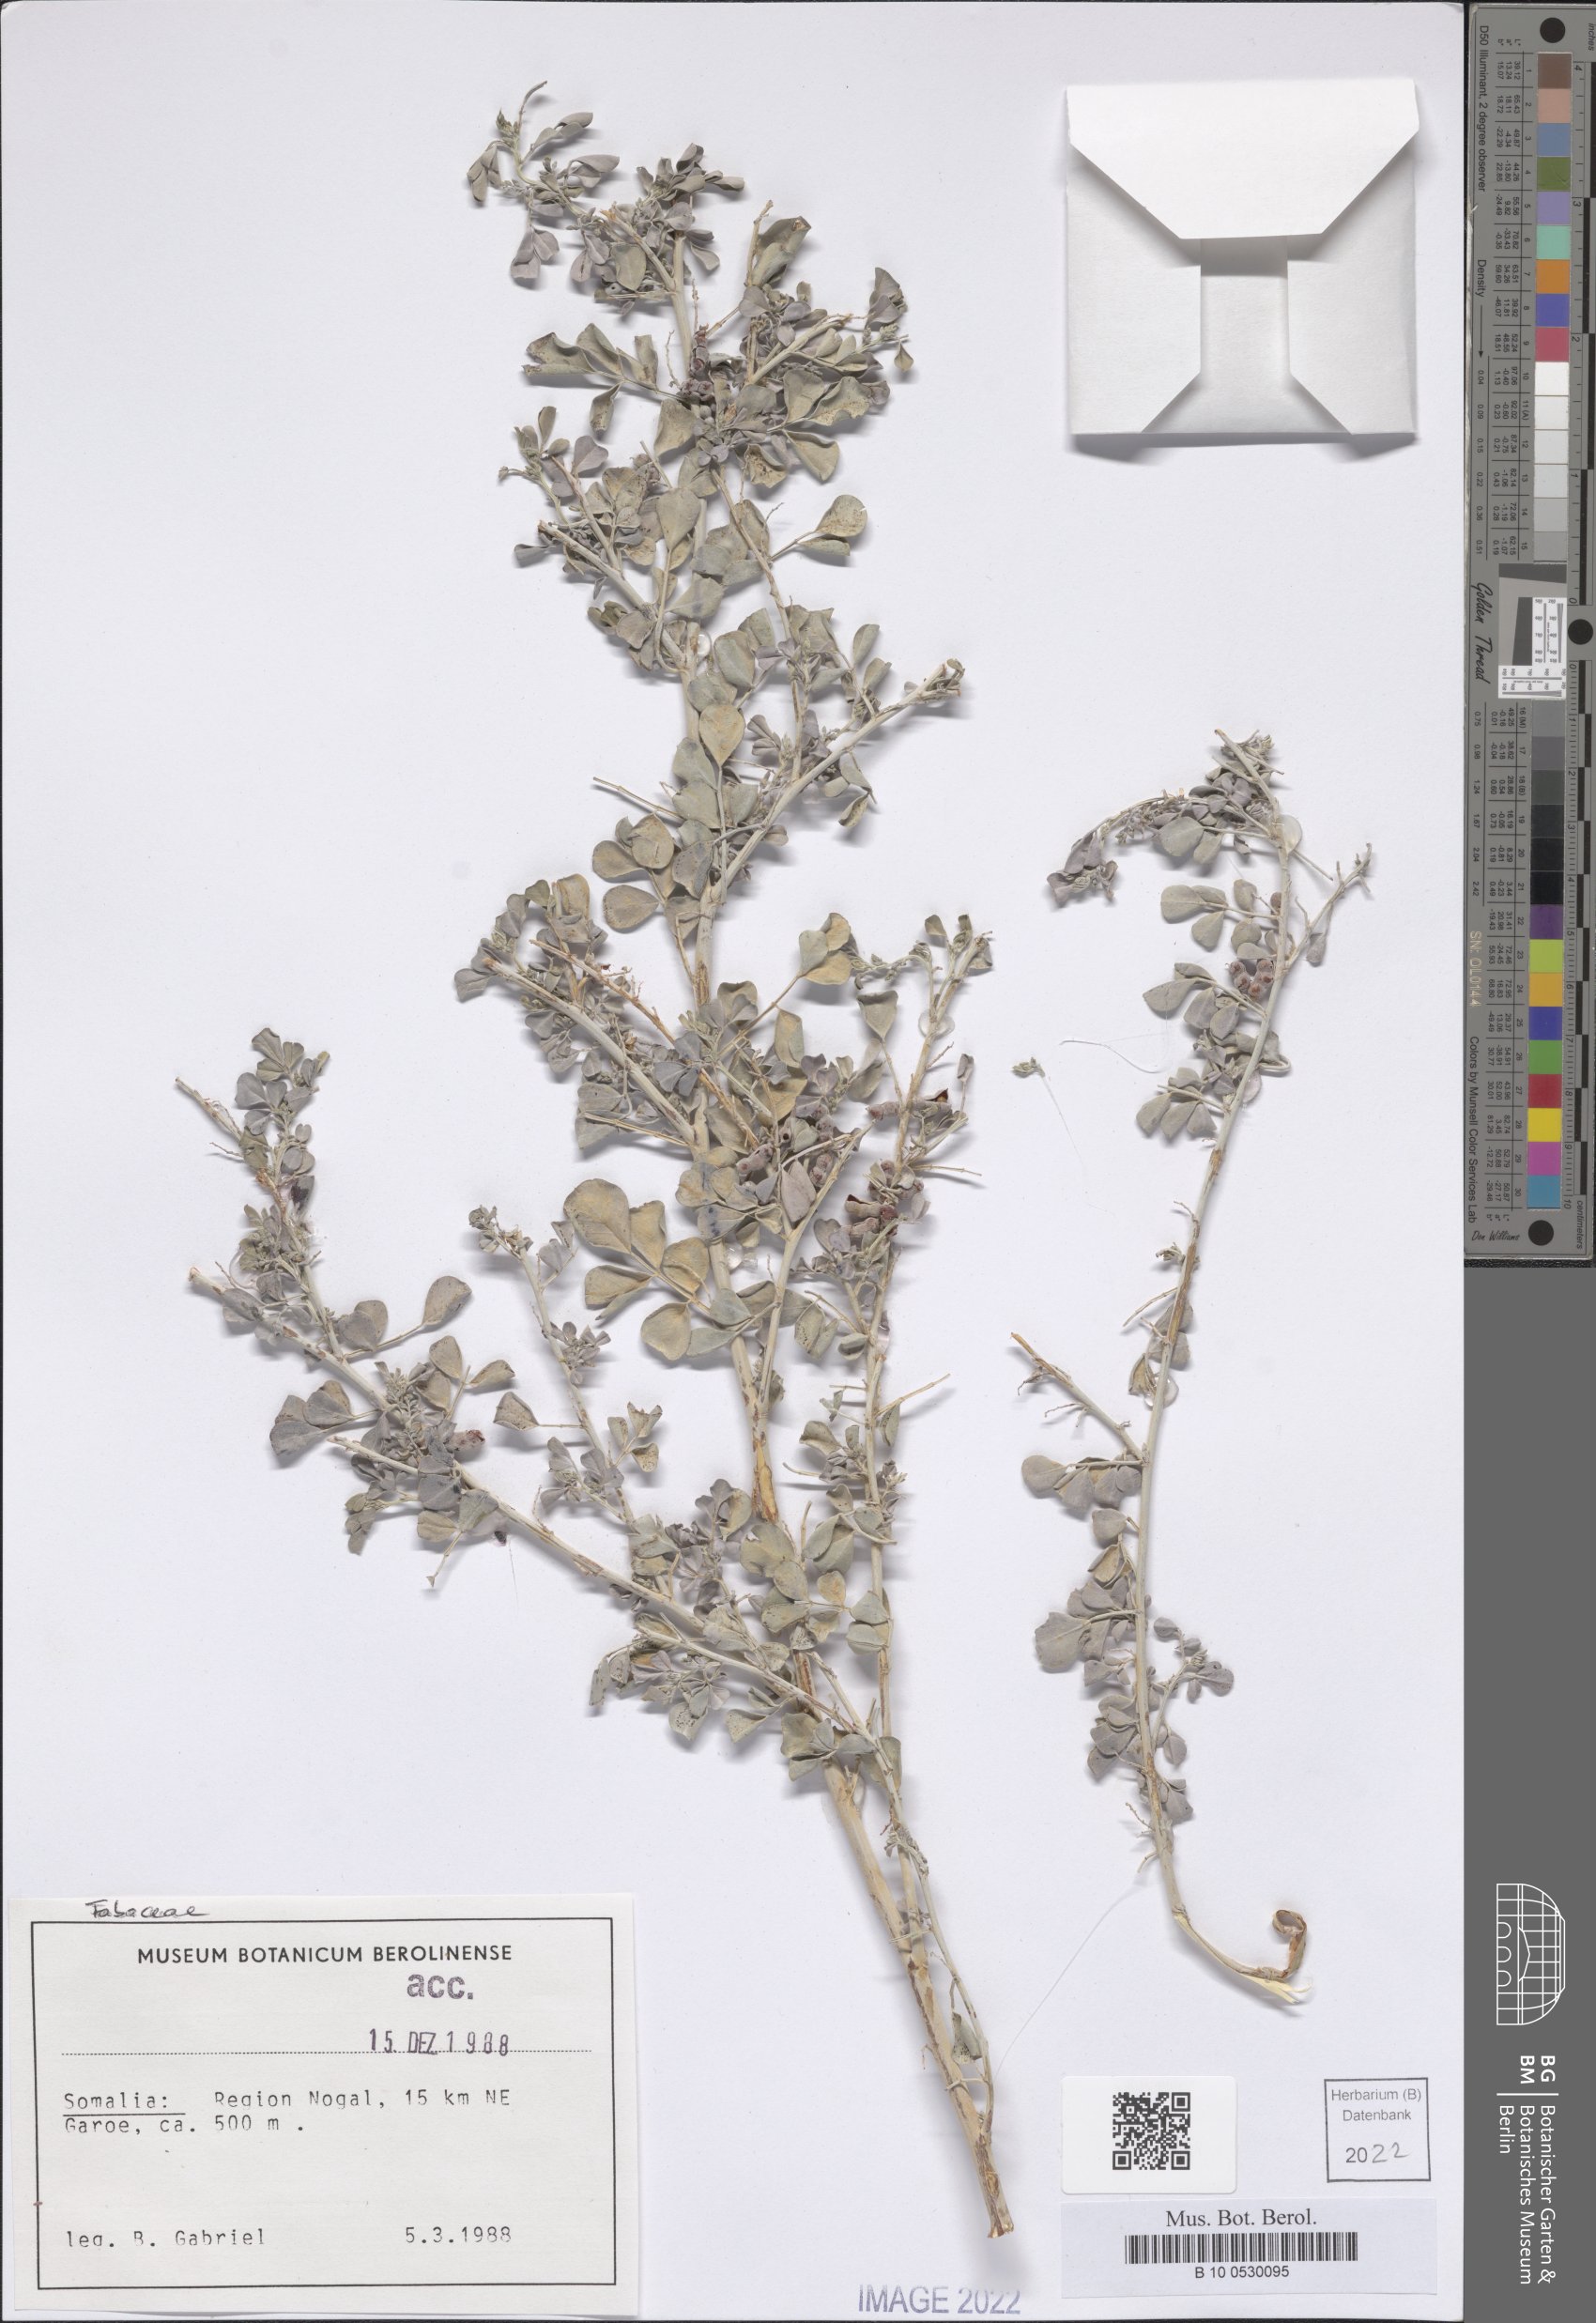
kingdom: Plantae
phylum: Tracheophyta
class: Magnoliopsida
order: Fabales
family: Fabaceae
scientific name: Fabaceae
